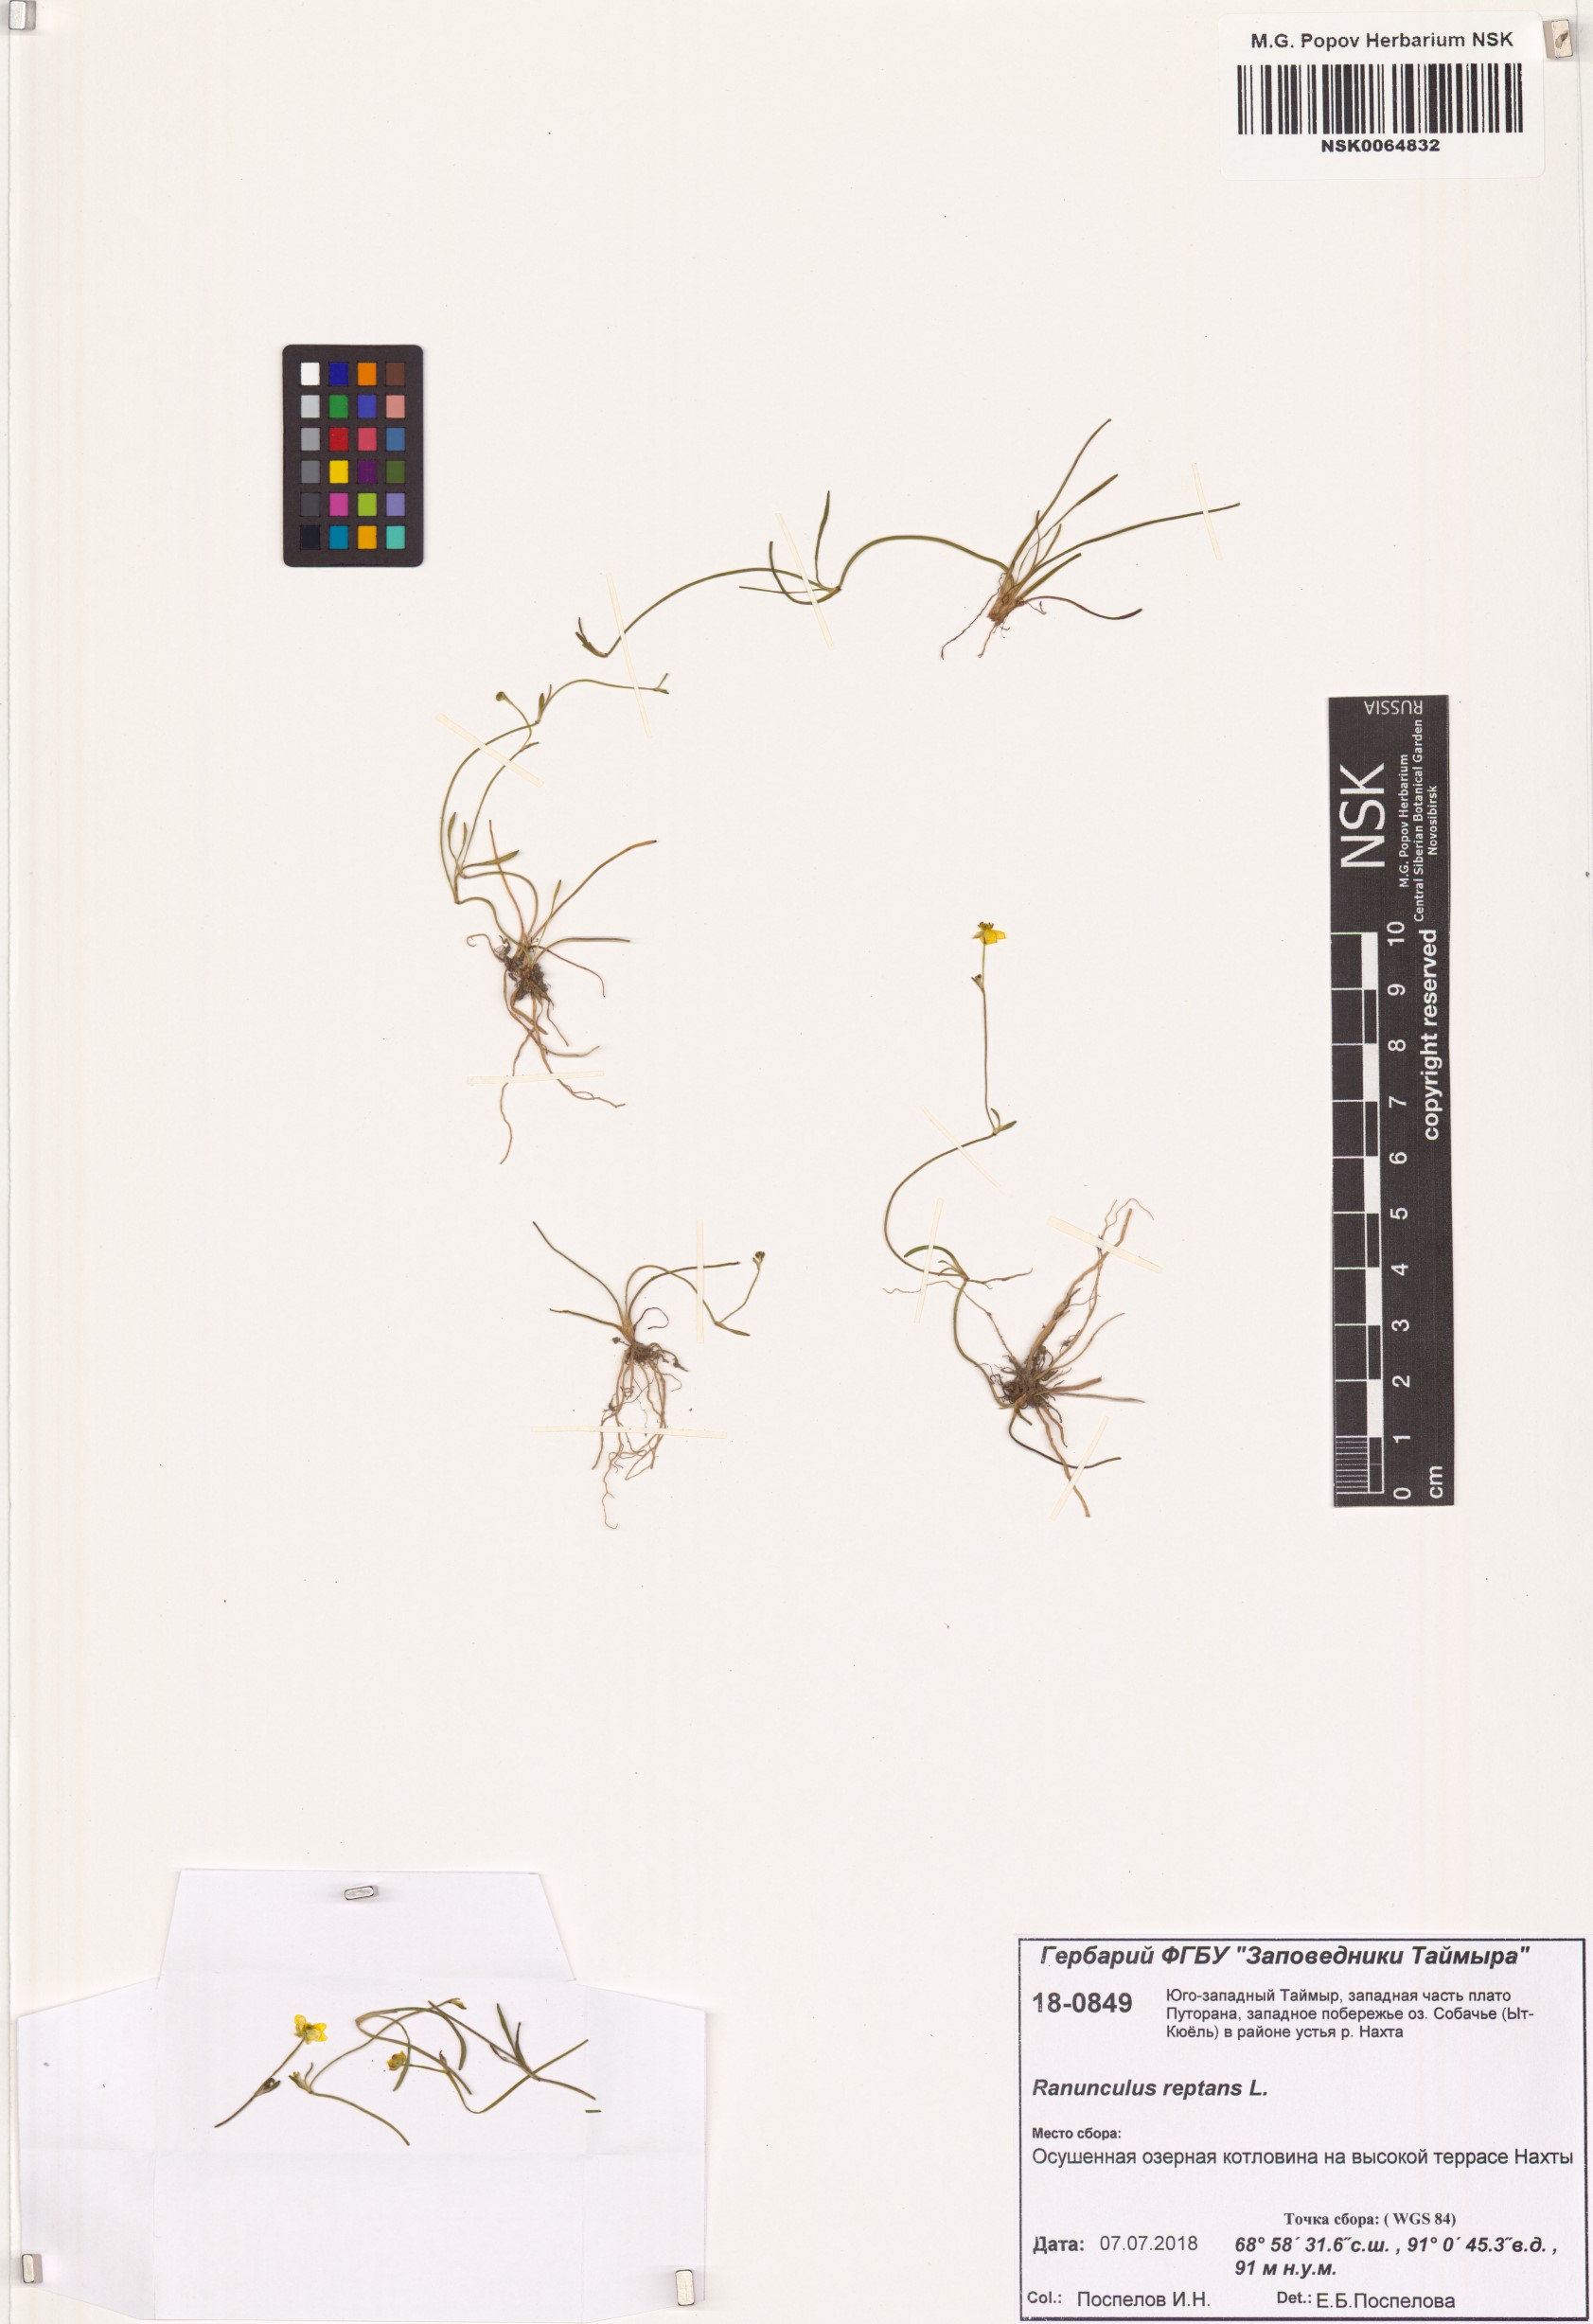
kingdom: Plantae
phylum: Tracheophyta
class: Magnoliopsida
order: Ranunculales
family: Ranunculaceae
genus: Ranunculus
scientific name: Ranunculus reptans
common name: Creeping spearwort
